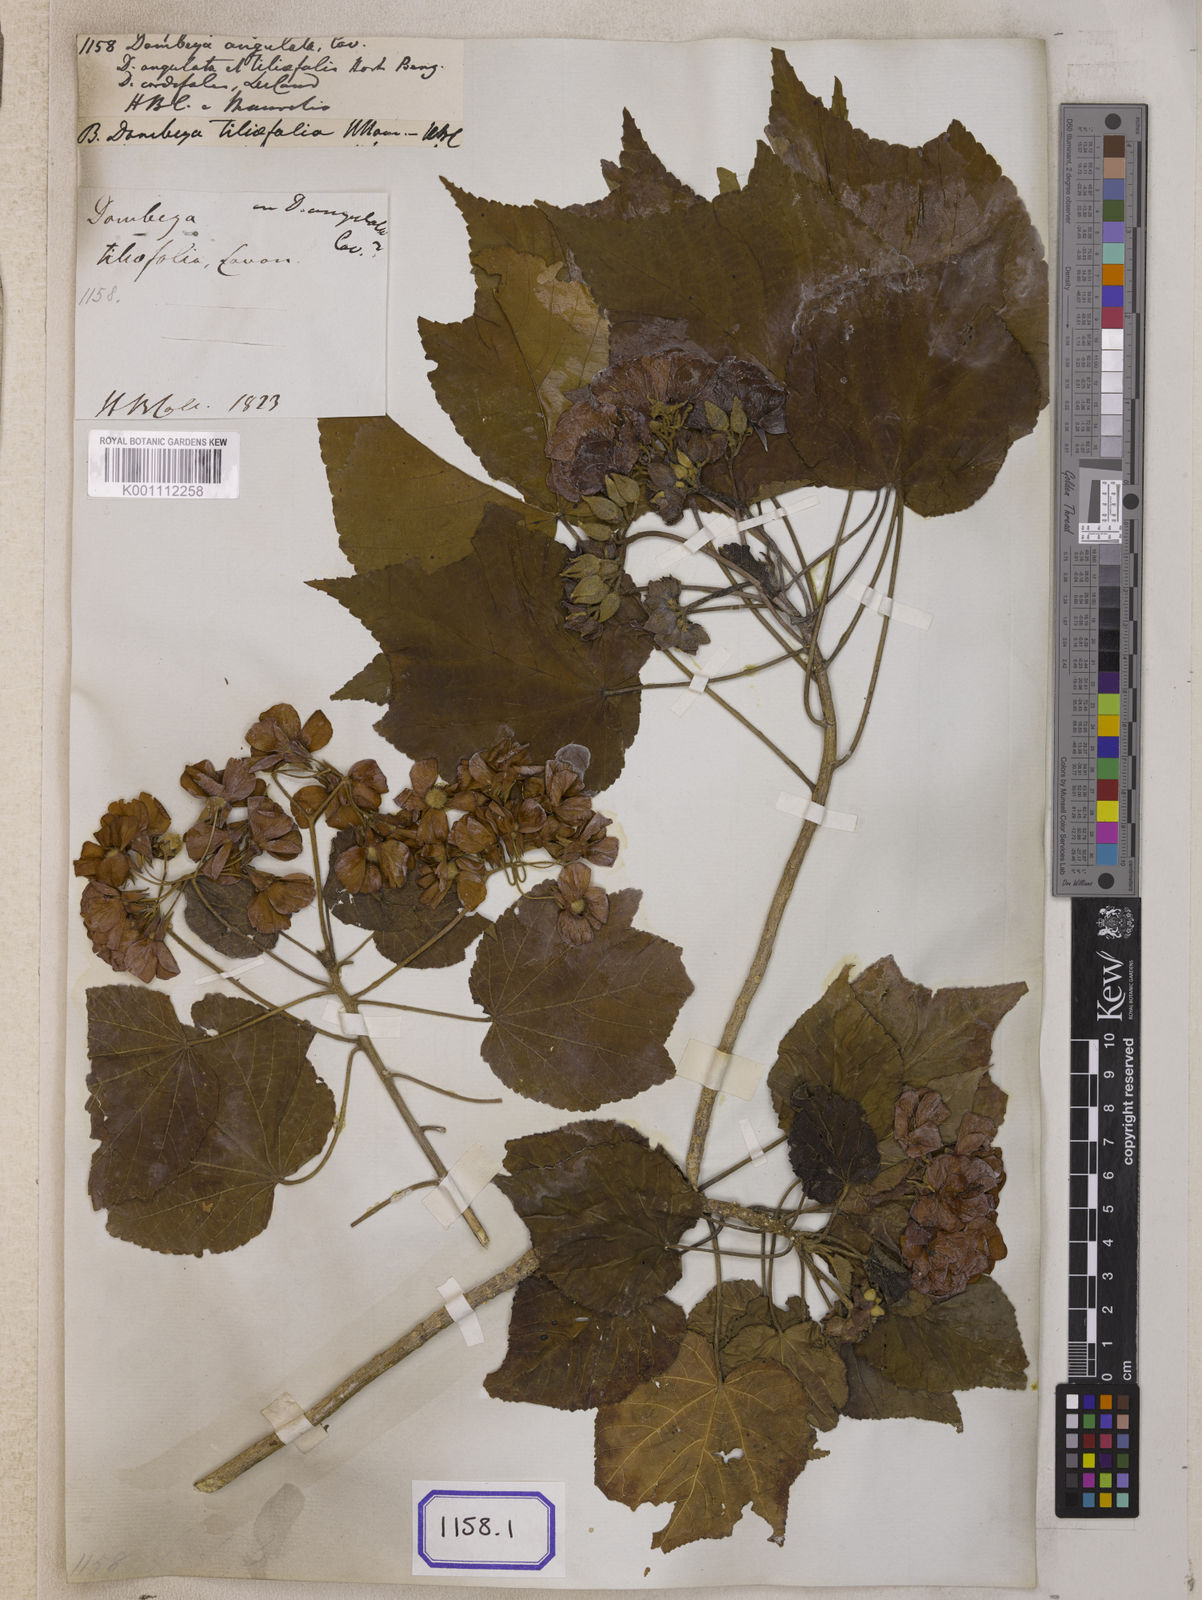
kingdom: Plantae
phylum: Tracheophyta
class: Magnoliopsida
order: Malvales
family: Malvaceae
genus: Dombeya
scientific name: Dombeya acutangula
